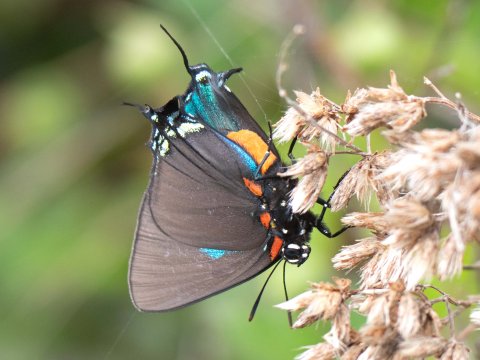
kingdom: Animalia
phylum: Arthropoda
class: Insecta
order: Lepidoptera
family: Lycaenidae
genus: Atlides
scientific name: Atlides halesus
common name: Great Purple Hairstreak
